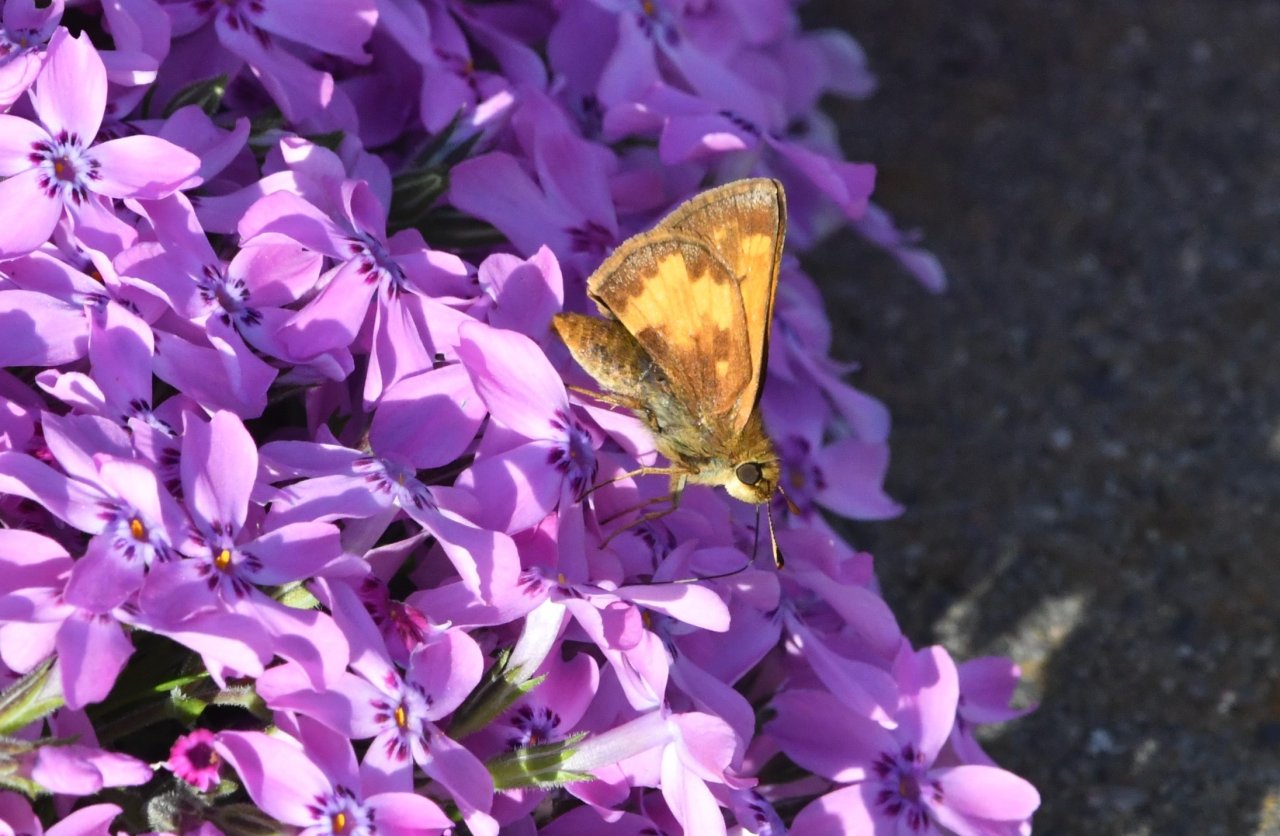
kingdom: Animalia
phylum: Arthropoda
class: Insecta
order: Lepidoptera
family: Hesperiidae
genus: Lon
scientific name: Lon hobomok
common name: Hobomok Skipper
